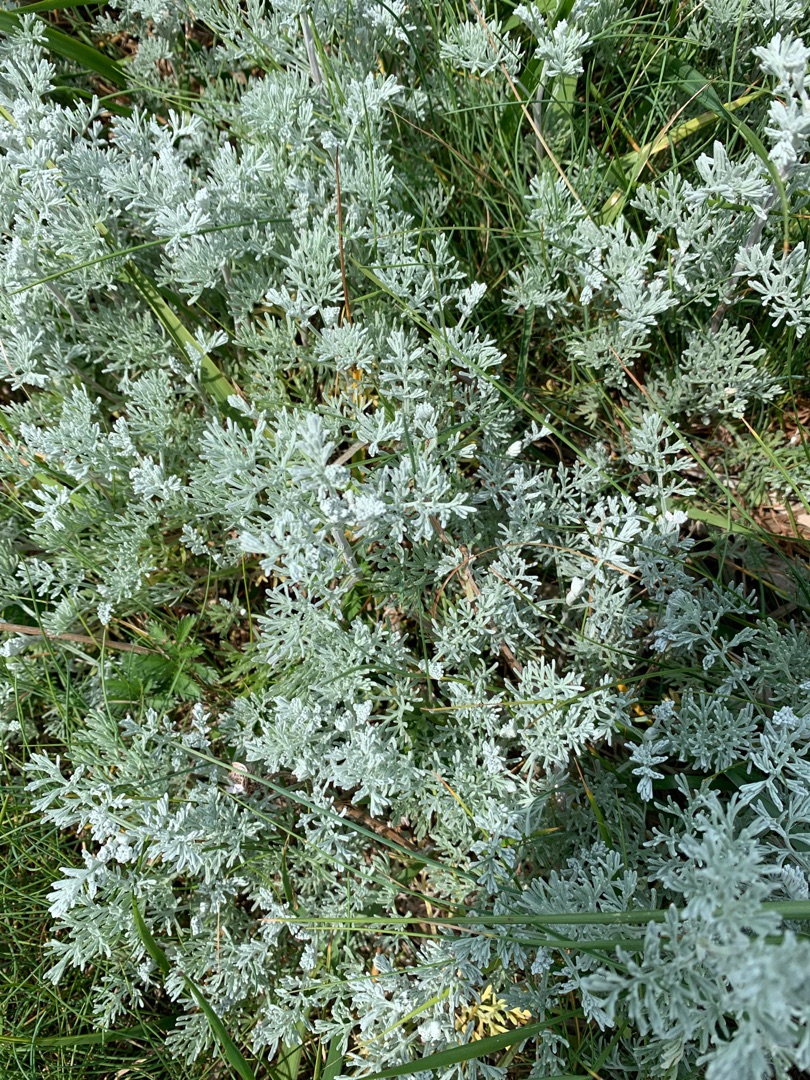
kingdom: Plantae
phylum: Tracheophyta
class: Magnoliopsida
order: Asterales
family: Asteraceae
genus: Artemisia
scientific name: Artemisia maritima
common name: Strandmalurt
